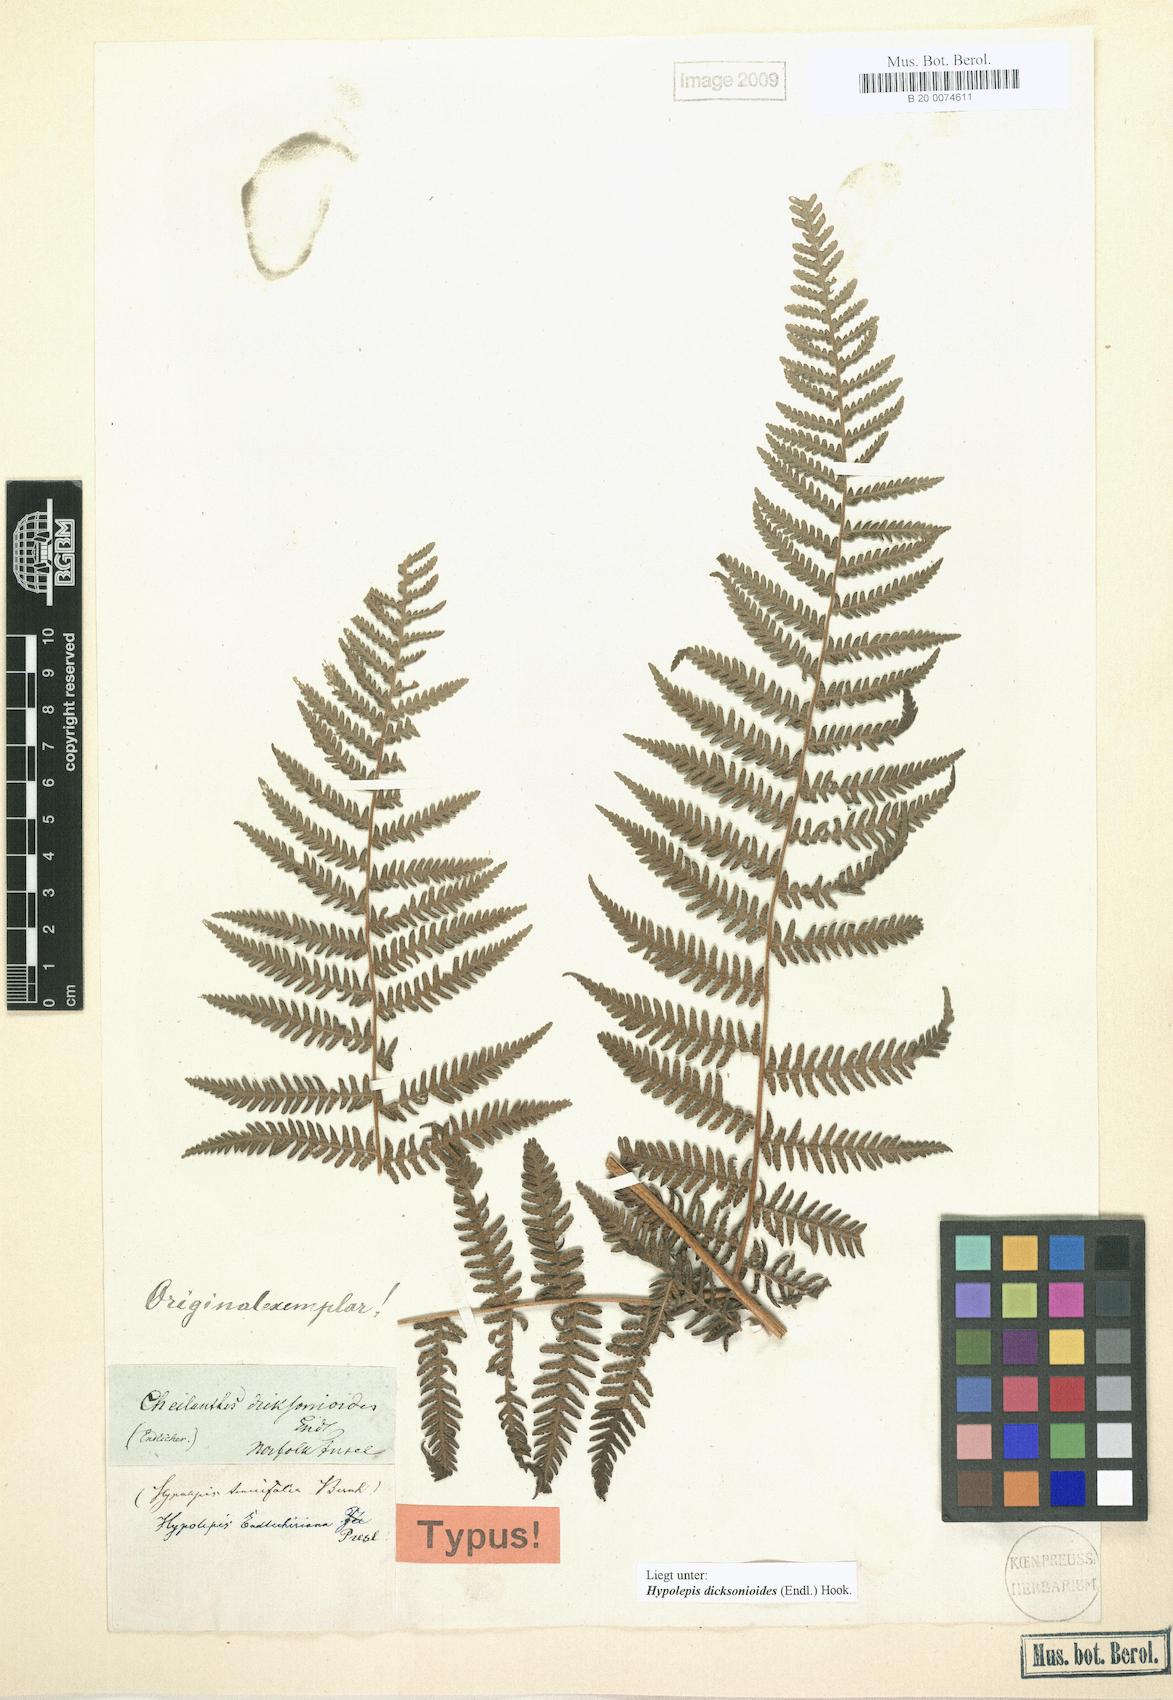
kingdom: Plantae
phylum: Tracheophyta
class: Polypodiopsida
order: Polypodiales
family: Dennstaedtiaceae
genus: Hypolepis
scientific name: Hypolepis dicksonioides
